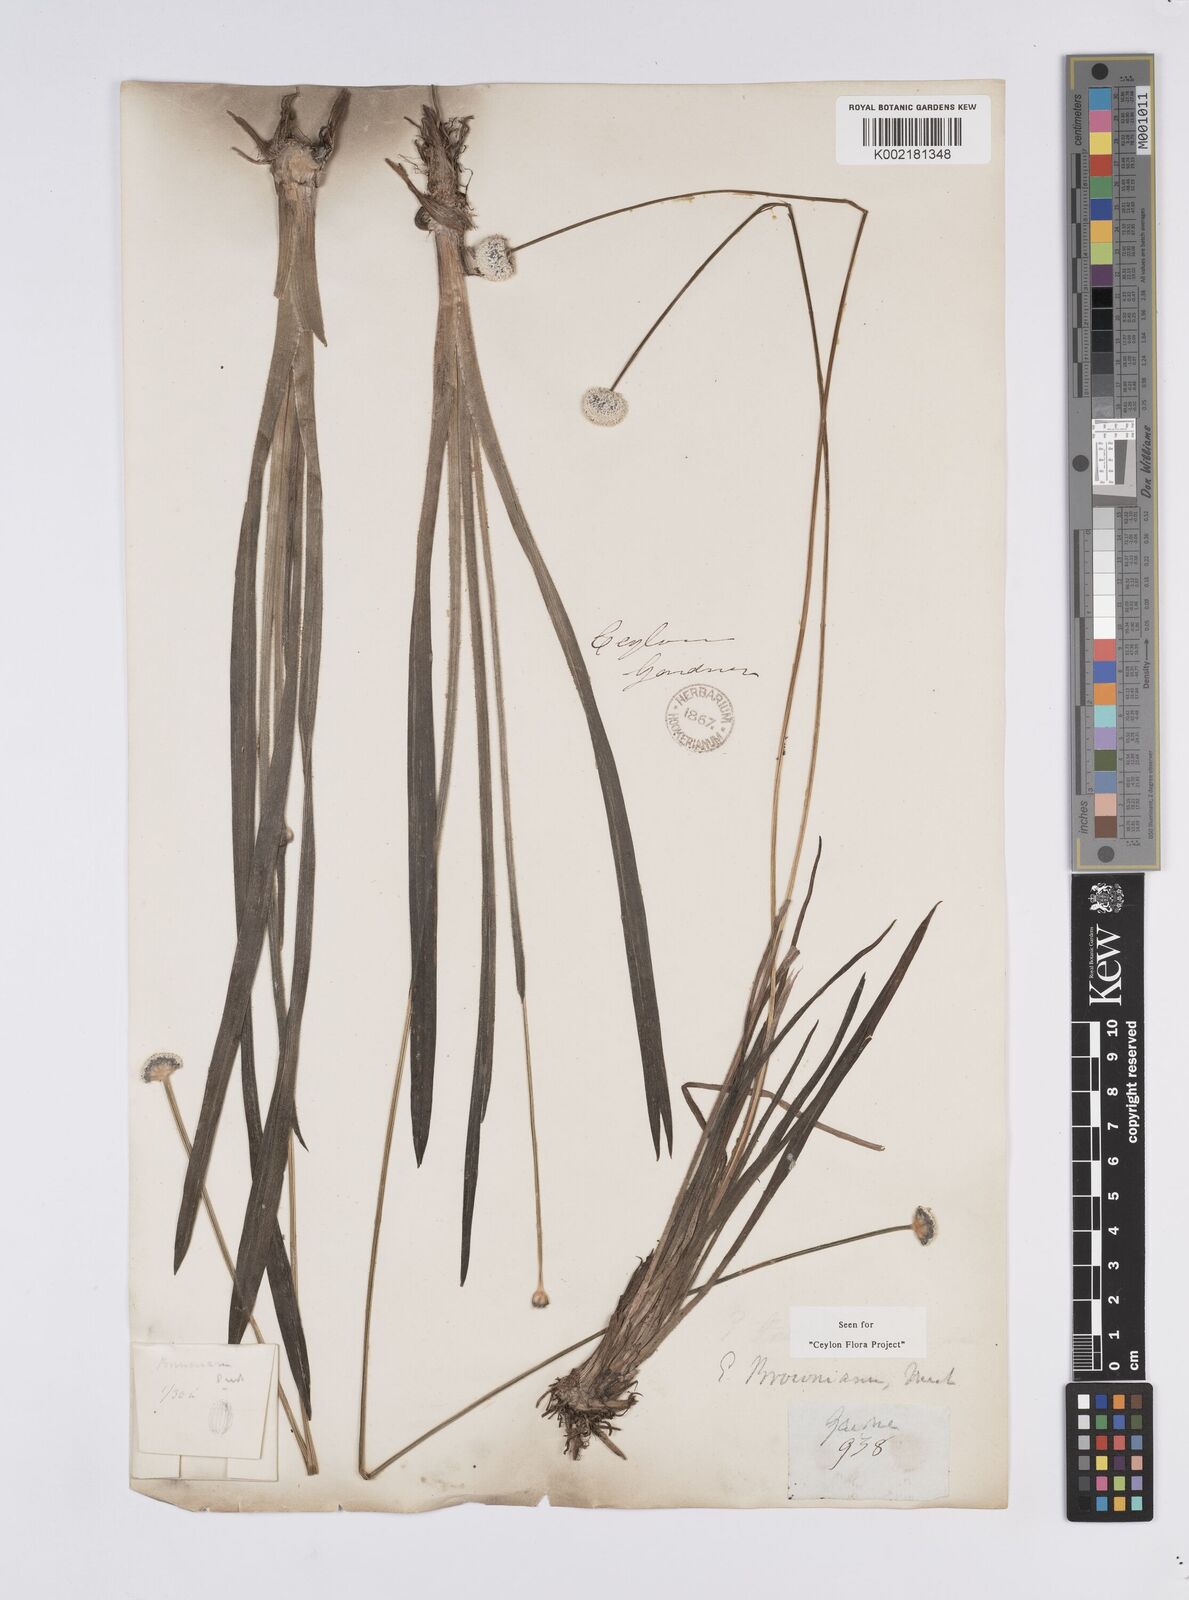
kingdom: Plantae
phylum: Tracheophyta
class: Liliopsida
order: Poales
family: Eriocaulaceae
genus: Eriocaulon
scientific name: Eriocaulon brownianum
